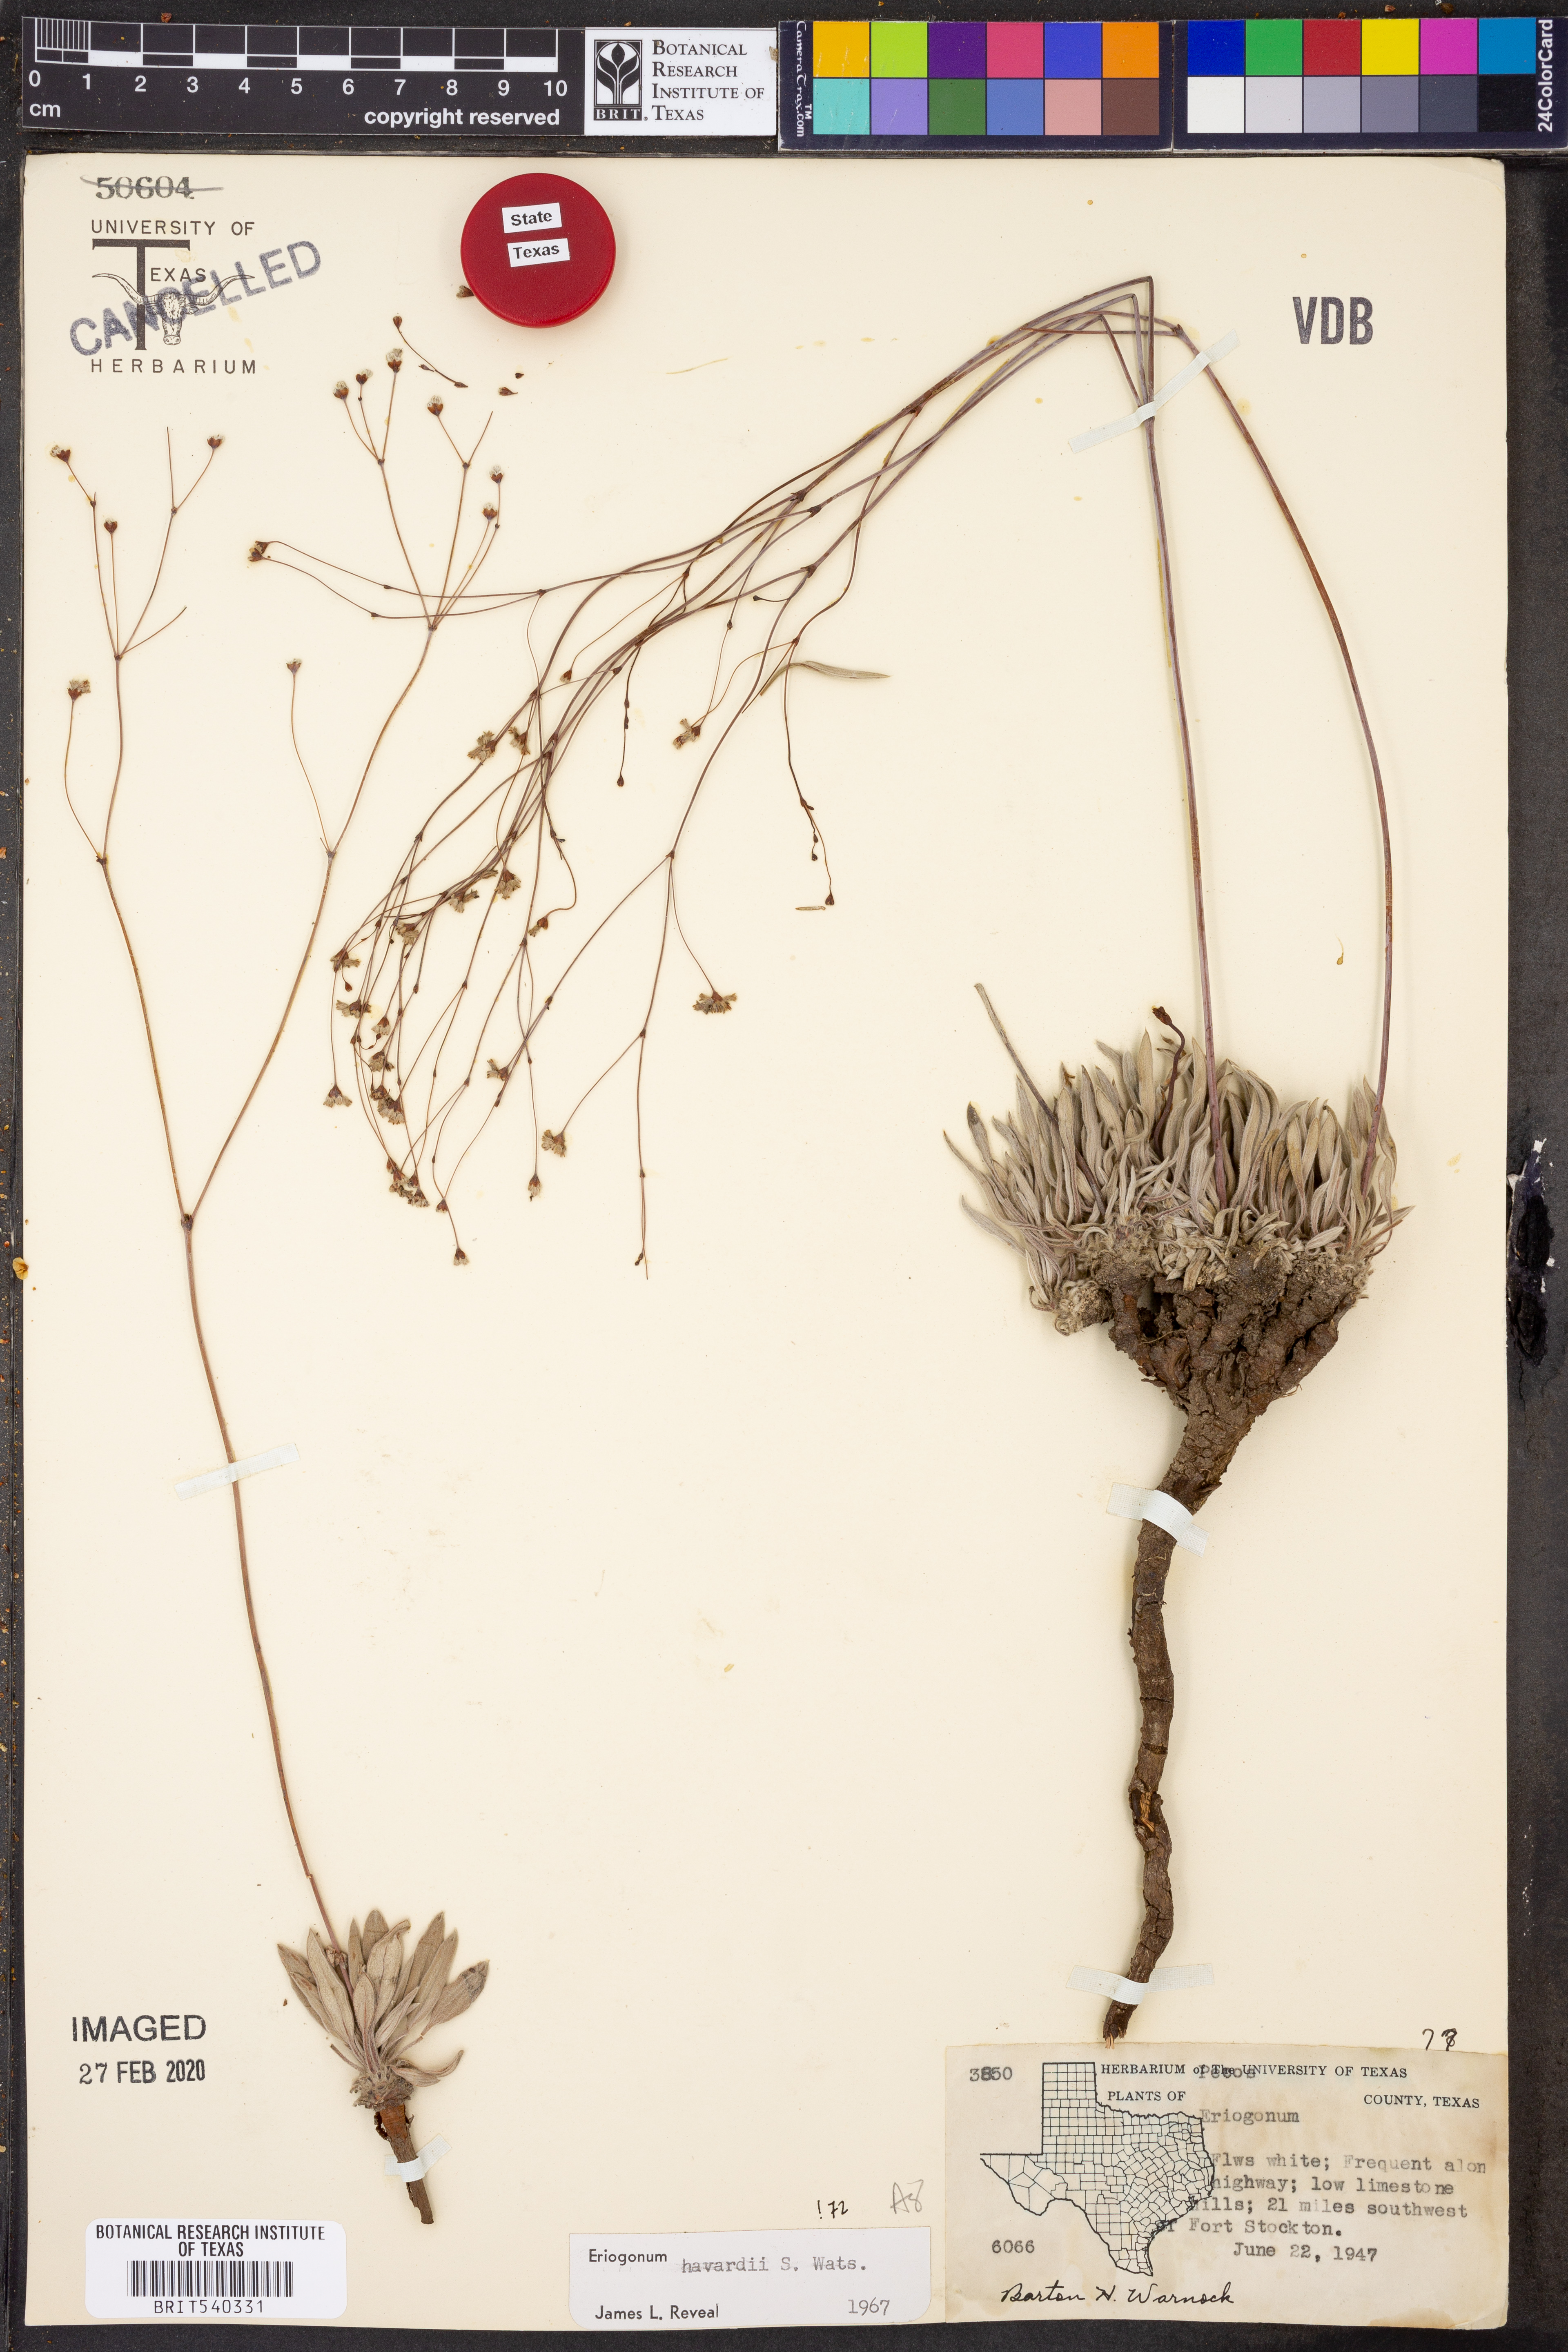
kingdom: Plantae
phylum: Tracheophyta
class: Magnoliopsida
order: Caryophyllales
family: Polygonaceae
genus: Eriogonum
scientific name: Eriogonum havardii
